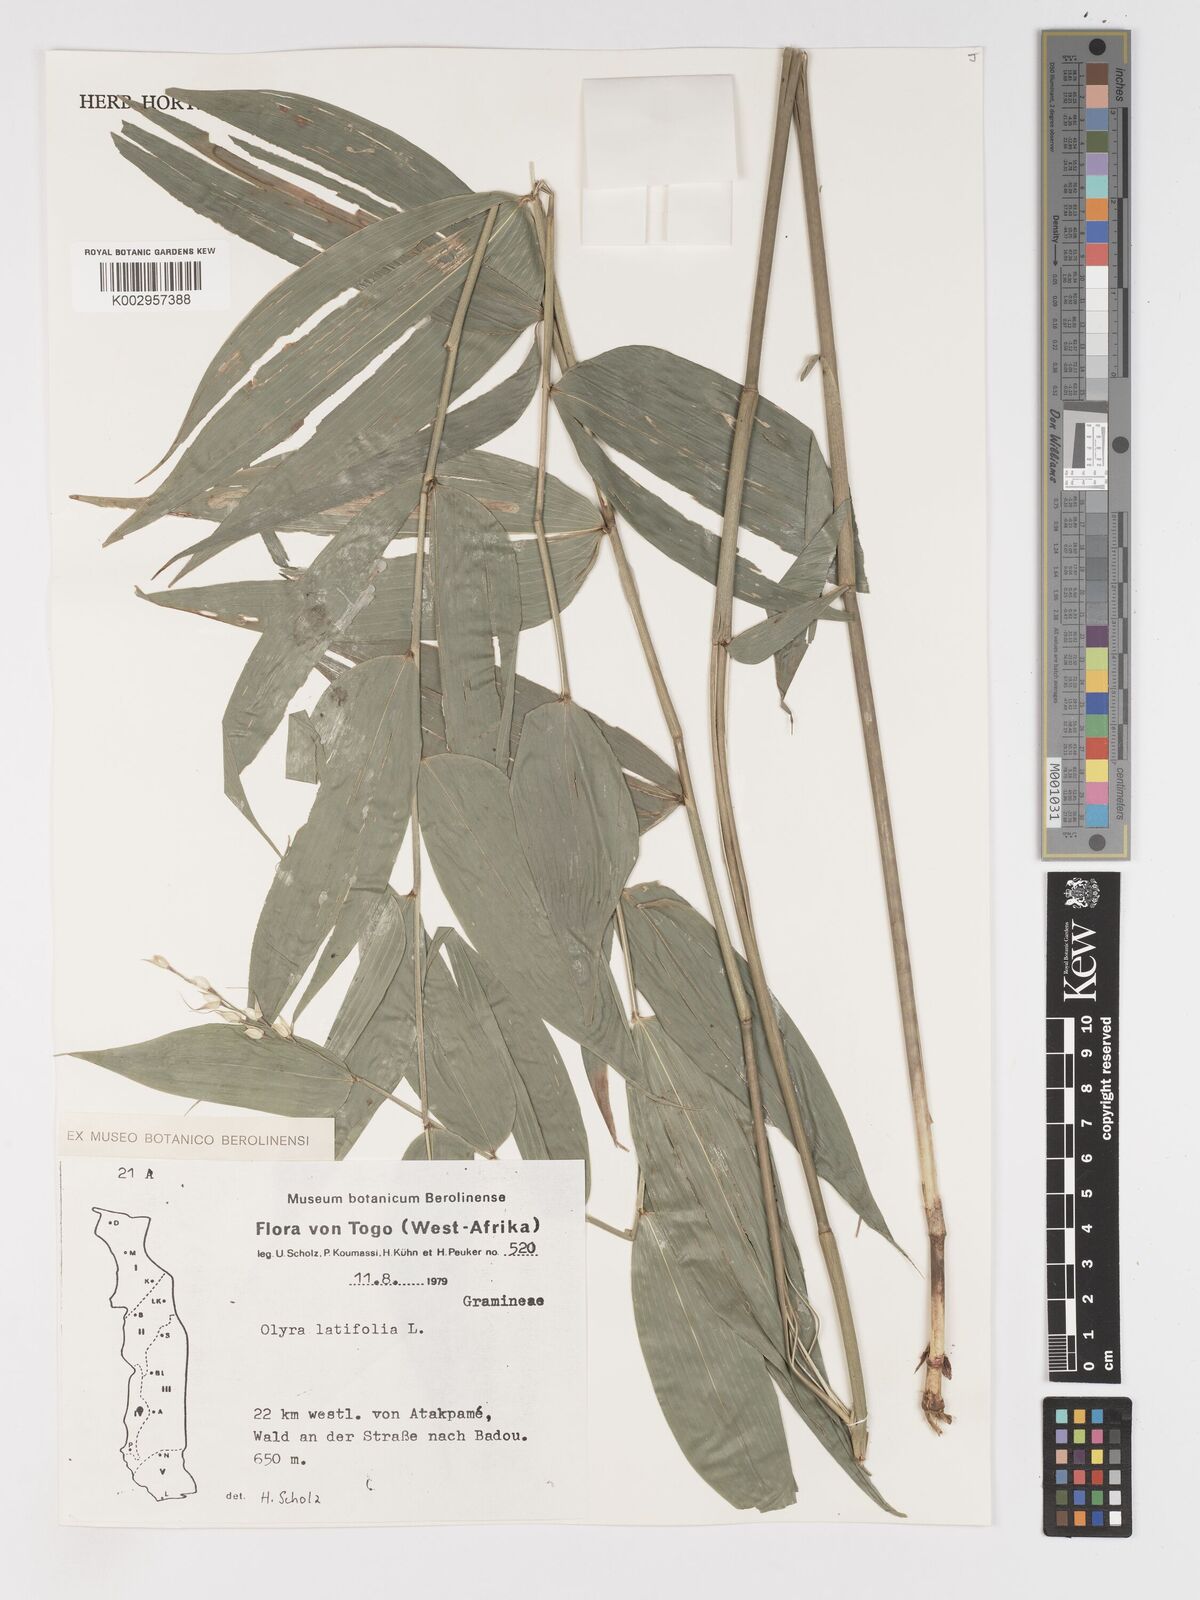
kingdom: Plantae
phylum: Tracheophyta
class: Liliopsida
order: Poales
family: Poaceae
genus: Olyra
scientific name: Olyra latifolia
